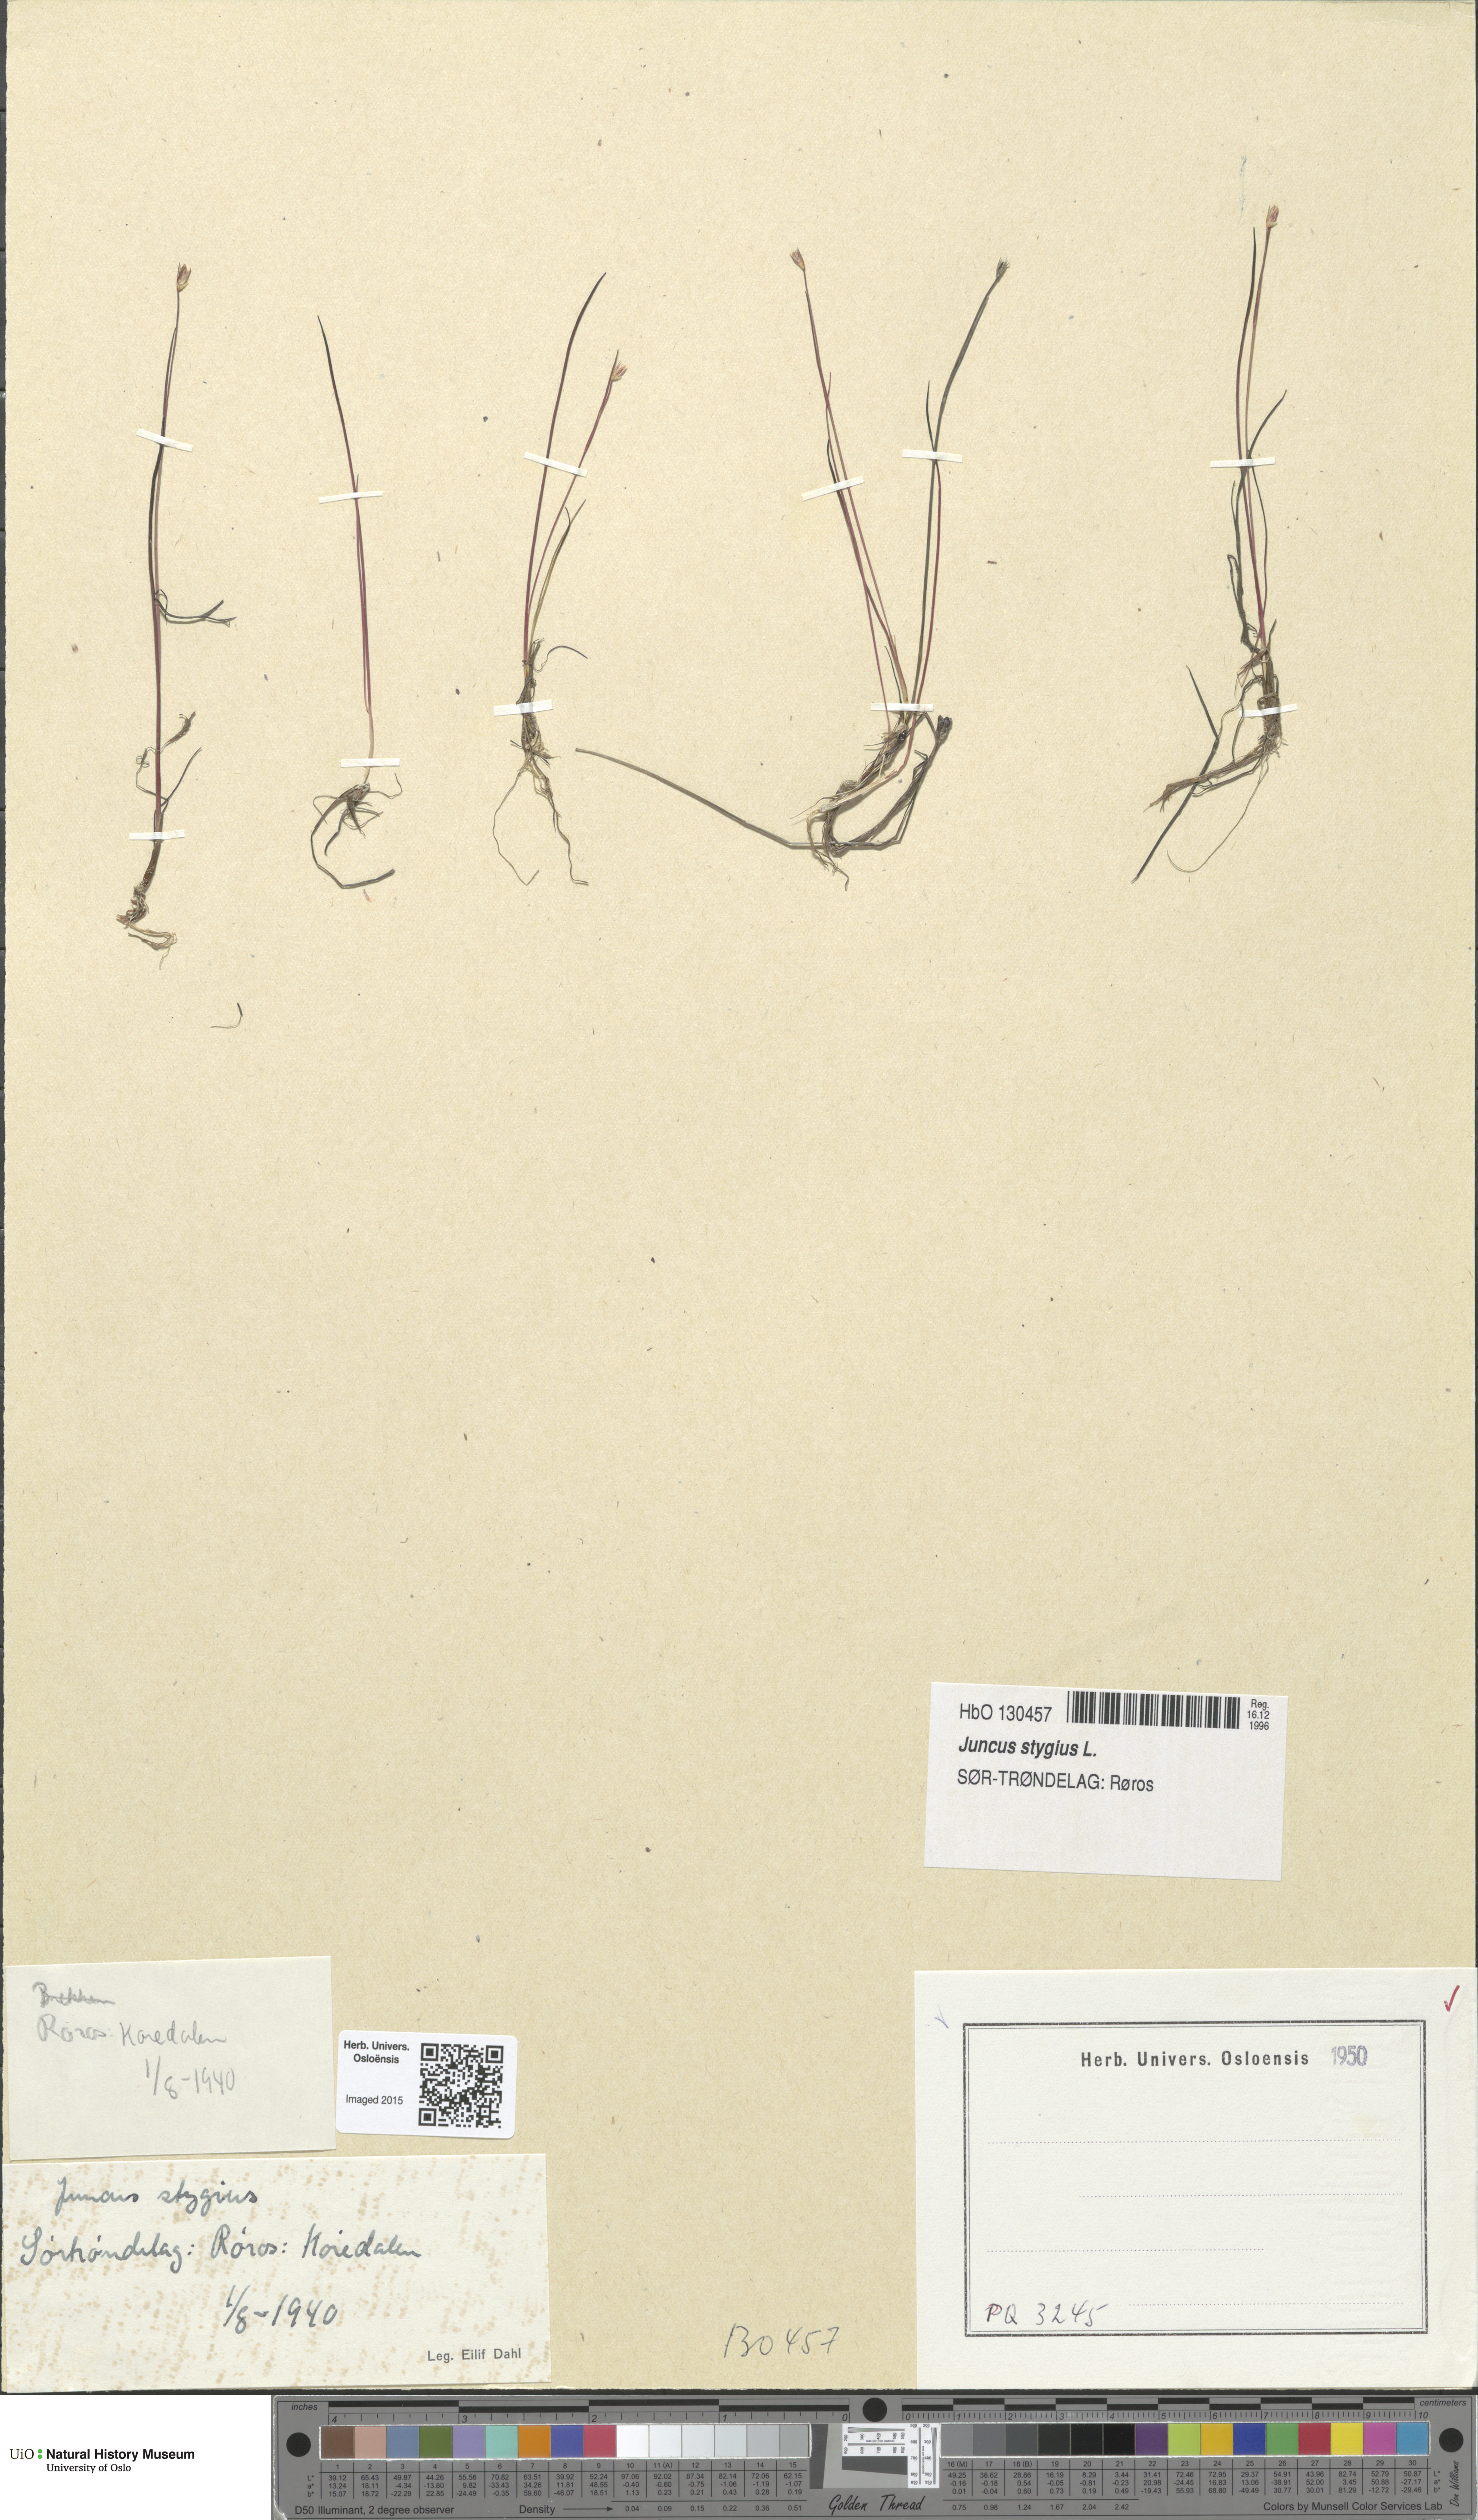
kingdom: Plantae
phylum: Tracheophyta
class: Liliopsida
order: Poales
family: Juncaceae
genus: Juncus
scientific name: Juncus stygius
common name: Bog rush
